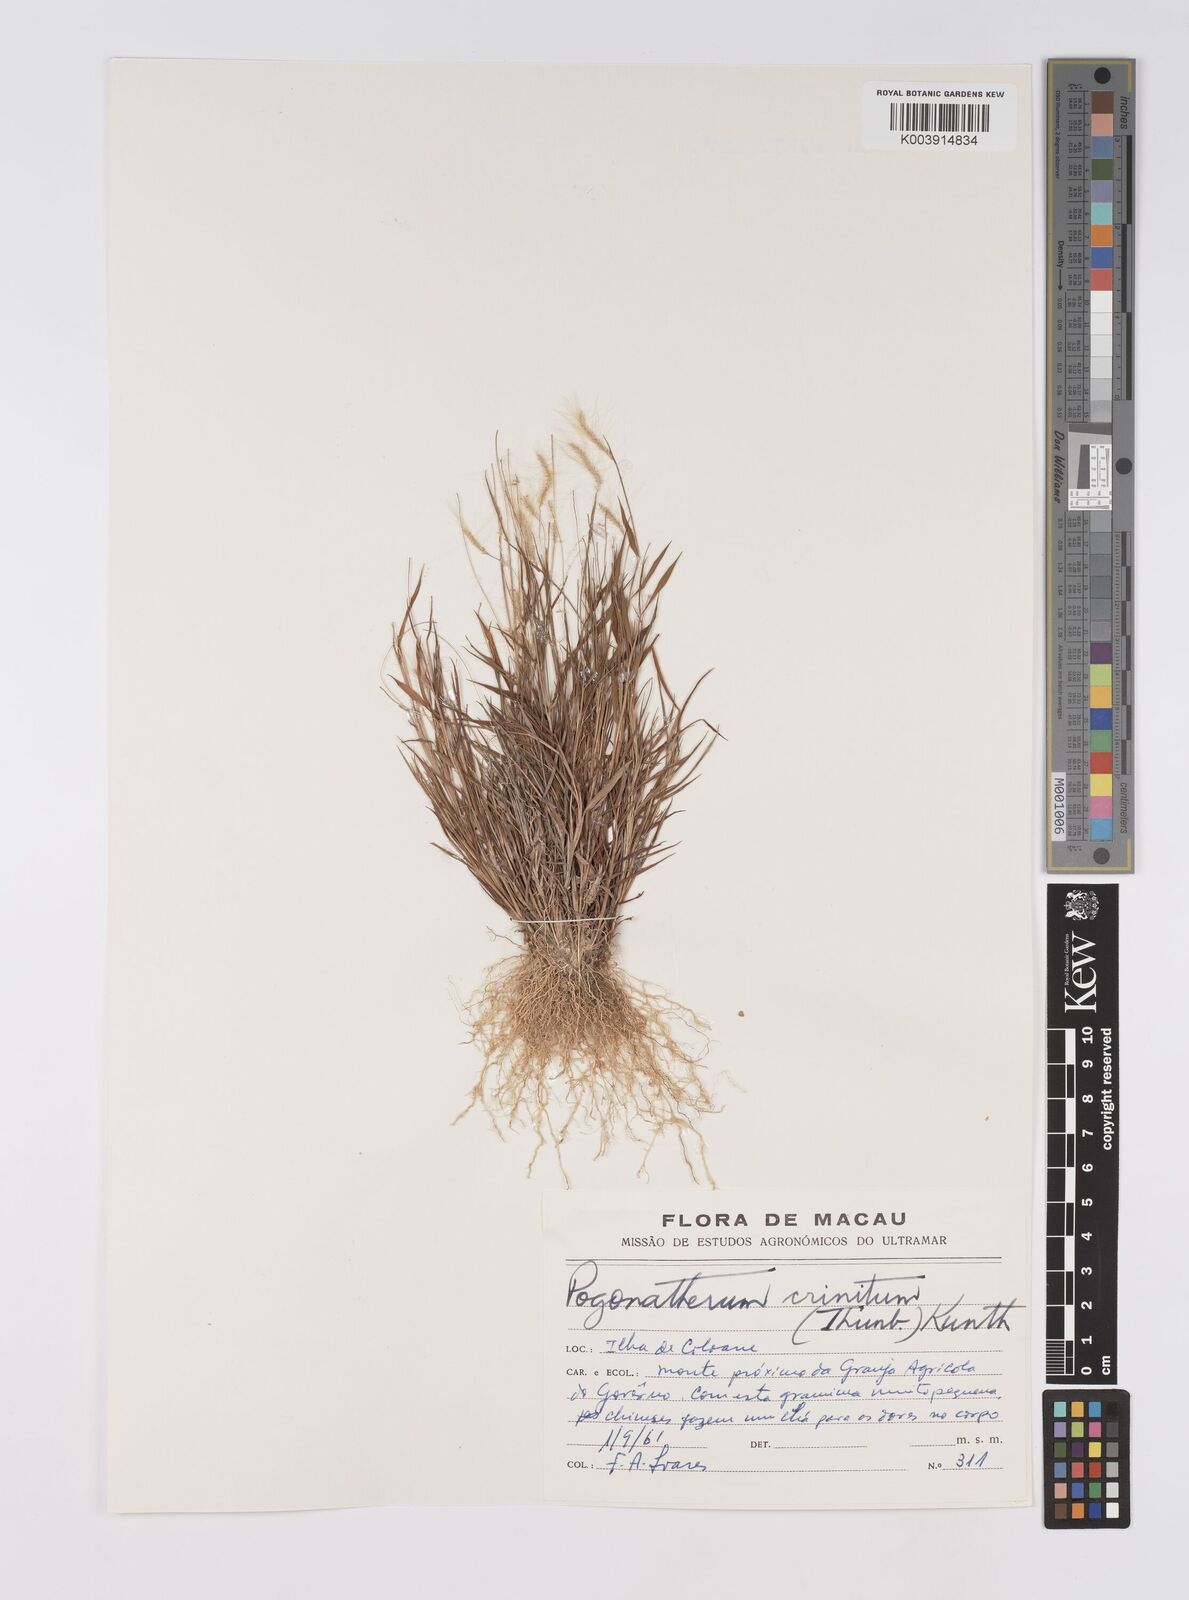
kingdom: Plantae
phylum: Tracheophyta
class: Liliopsida
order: Poales
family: Poaceae
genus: Pogonatherum
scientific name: Pogonatherum crinitum
